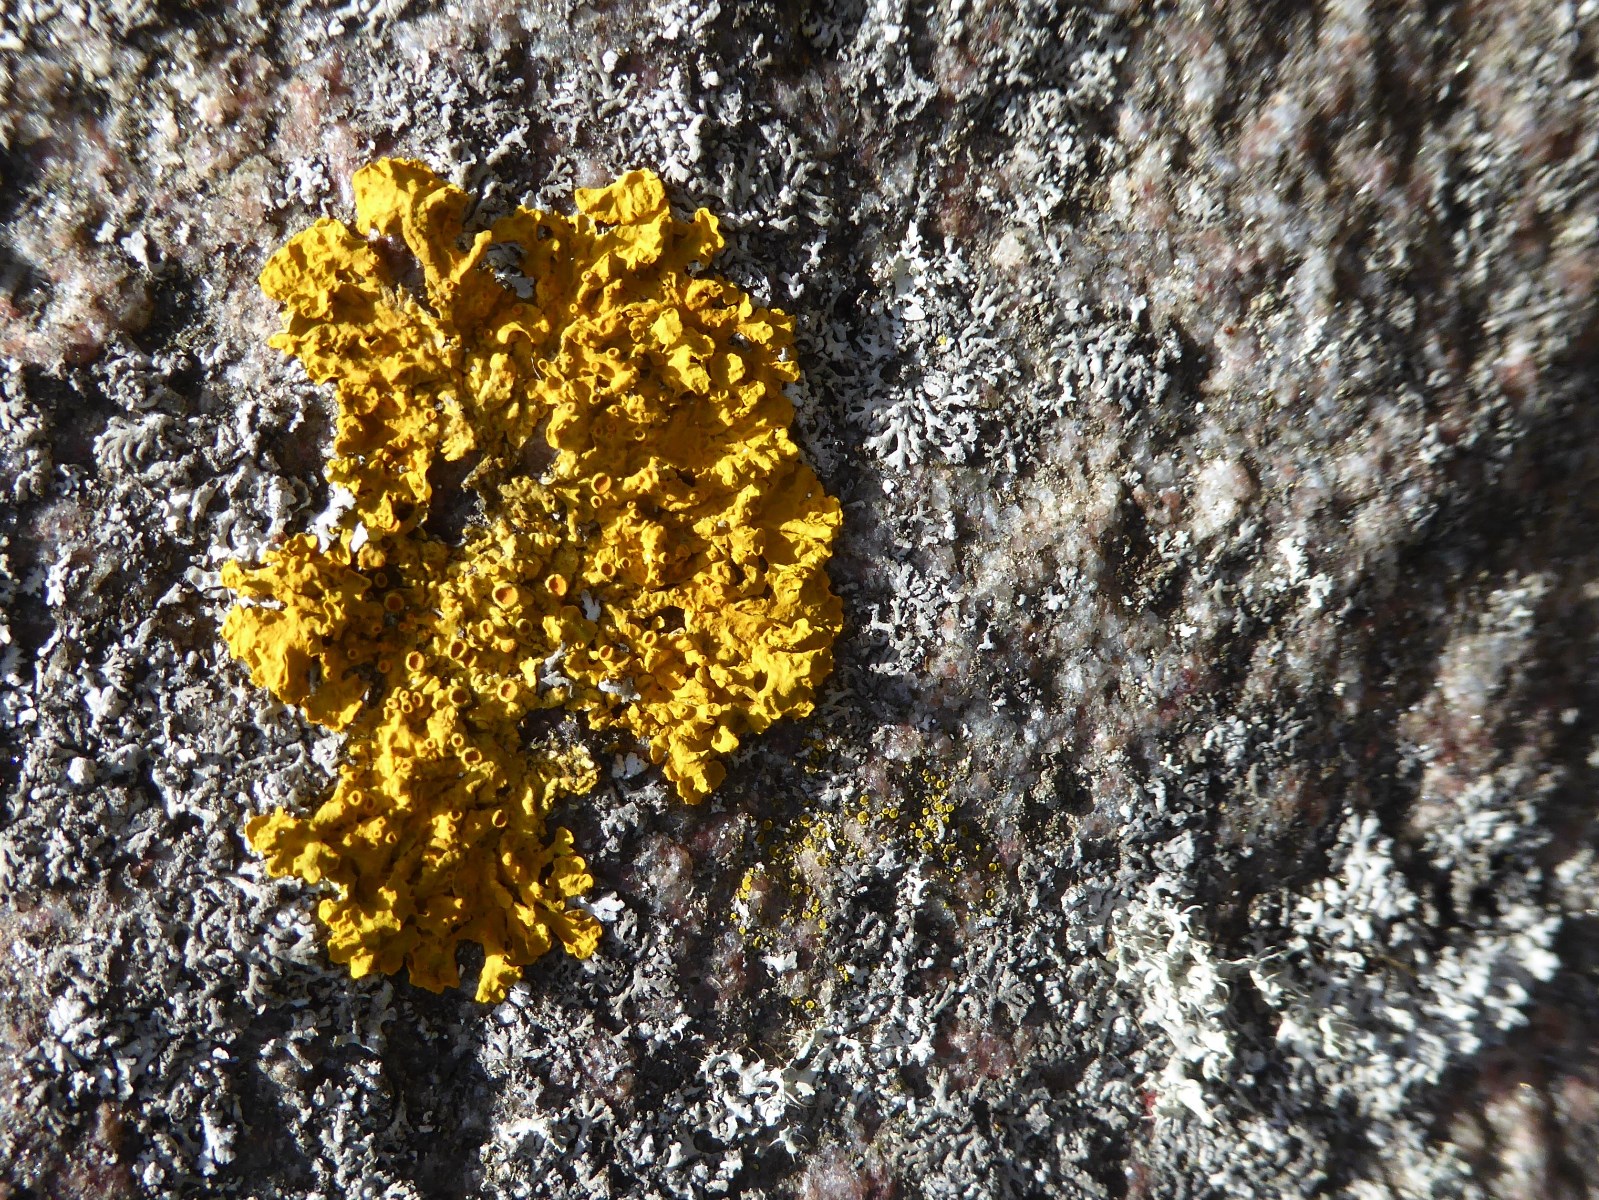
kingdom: Fungi
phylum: Ascomycota
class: Lecanoromycetes
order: Teloschistales
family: Teloschistaceae
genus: Xanthoria
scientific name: Xanthoria parietina
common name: almindelig væggelav
